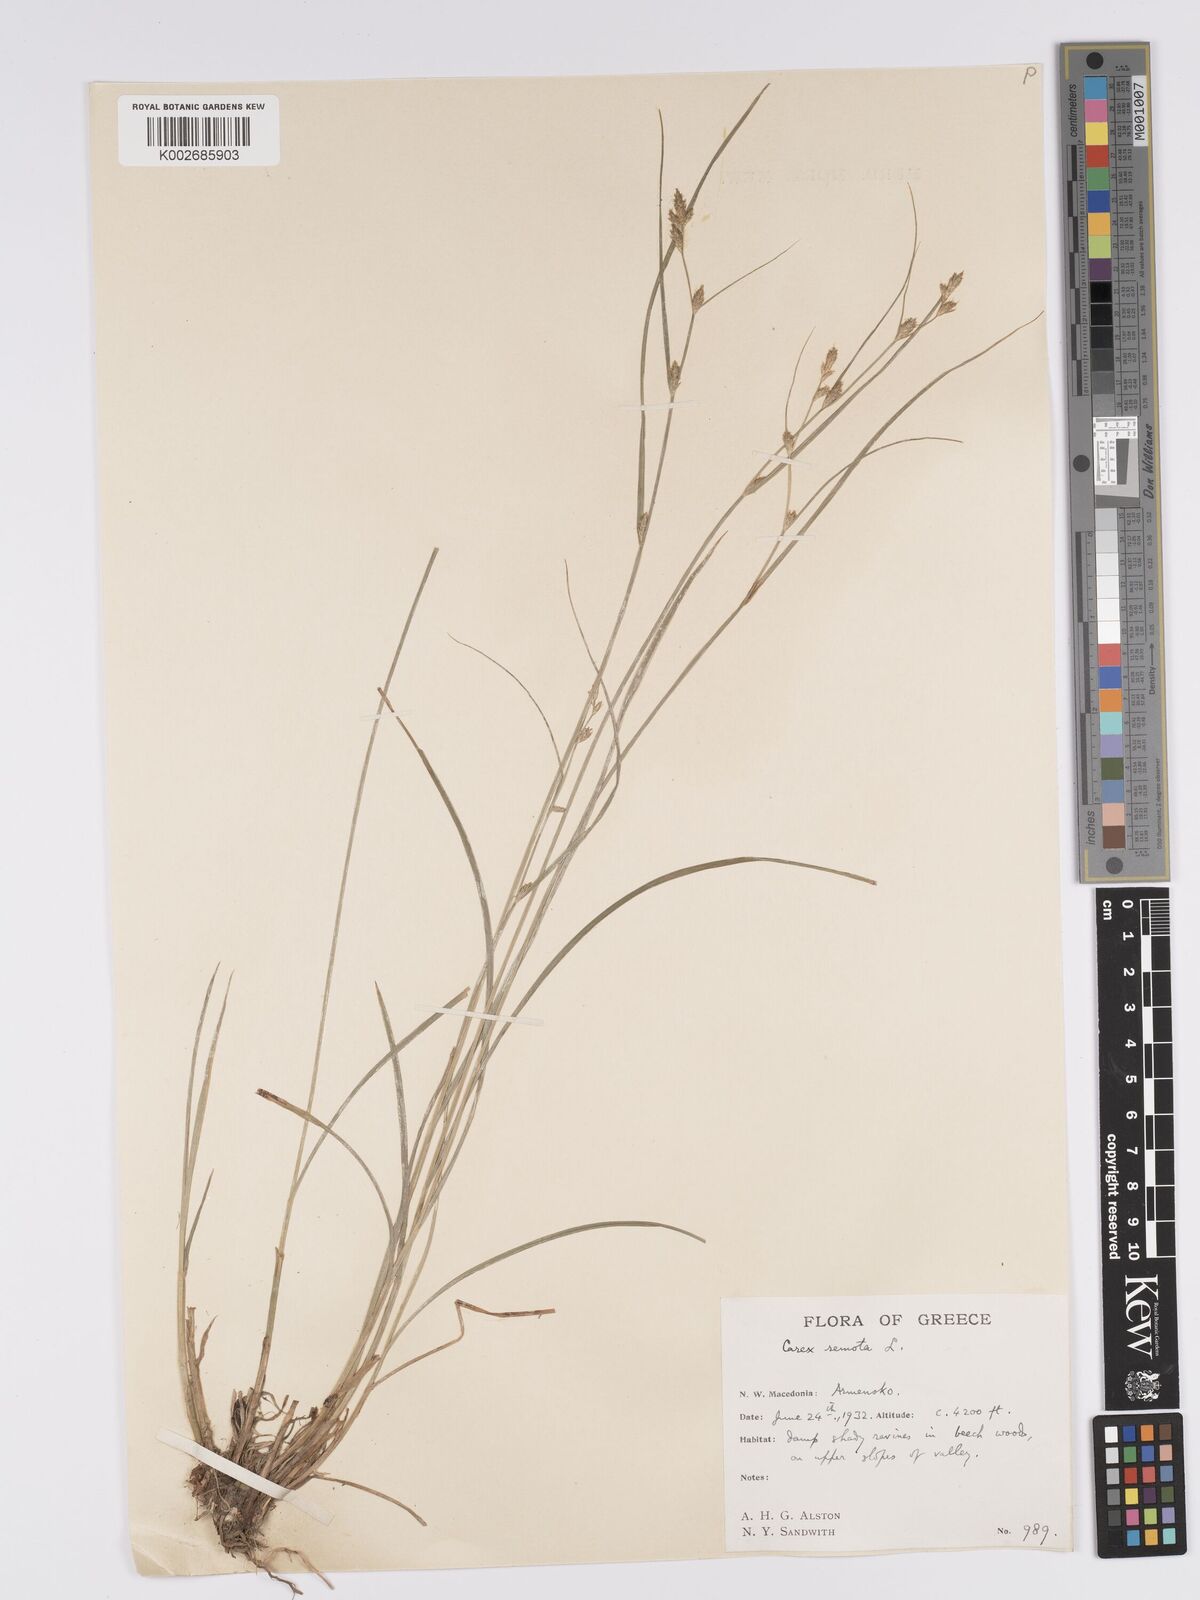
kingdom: Plantae
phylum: Tracheophyta
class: Liliopsida
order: Poales
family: Cyperaceae
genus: Carex
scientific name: Carex remota
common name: Remote sedge
